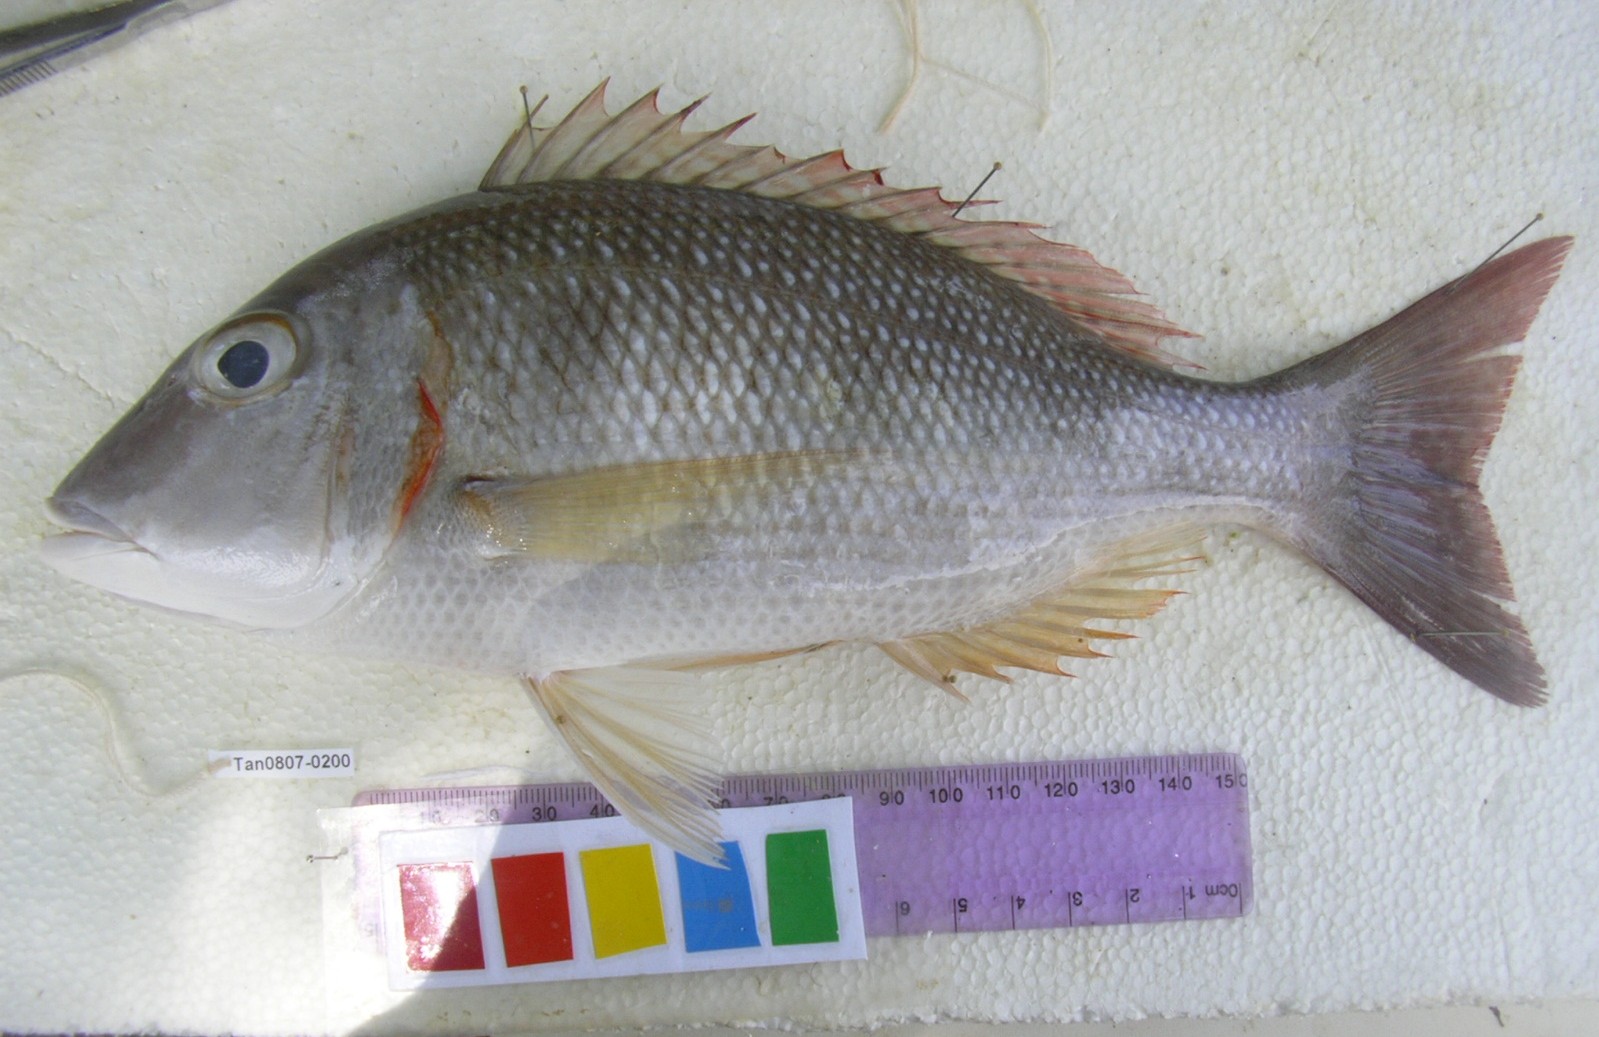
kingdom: Animalia
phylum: Chordata
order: Perciformes
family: Lethrinidae
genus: Lethrinus
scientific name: Lethrinus lentjan
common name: Redspot emperor
